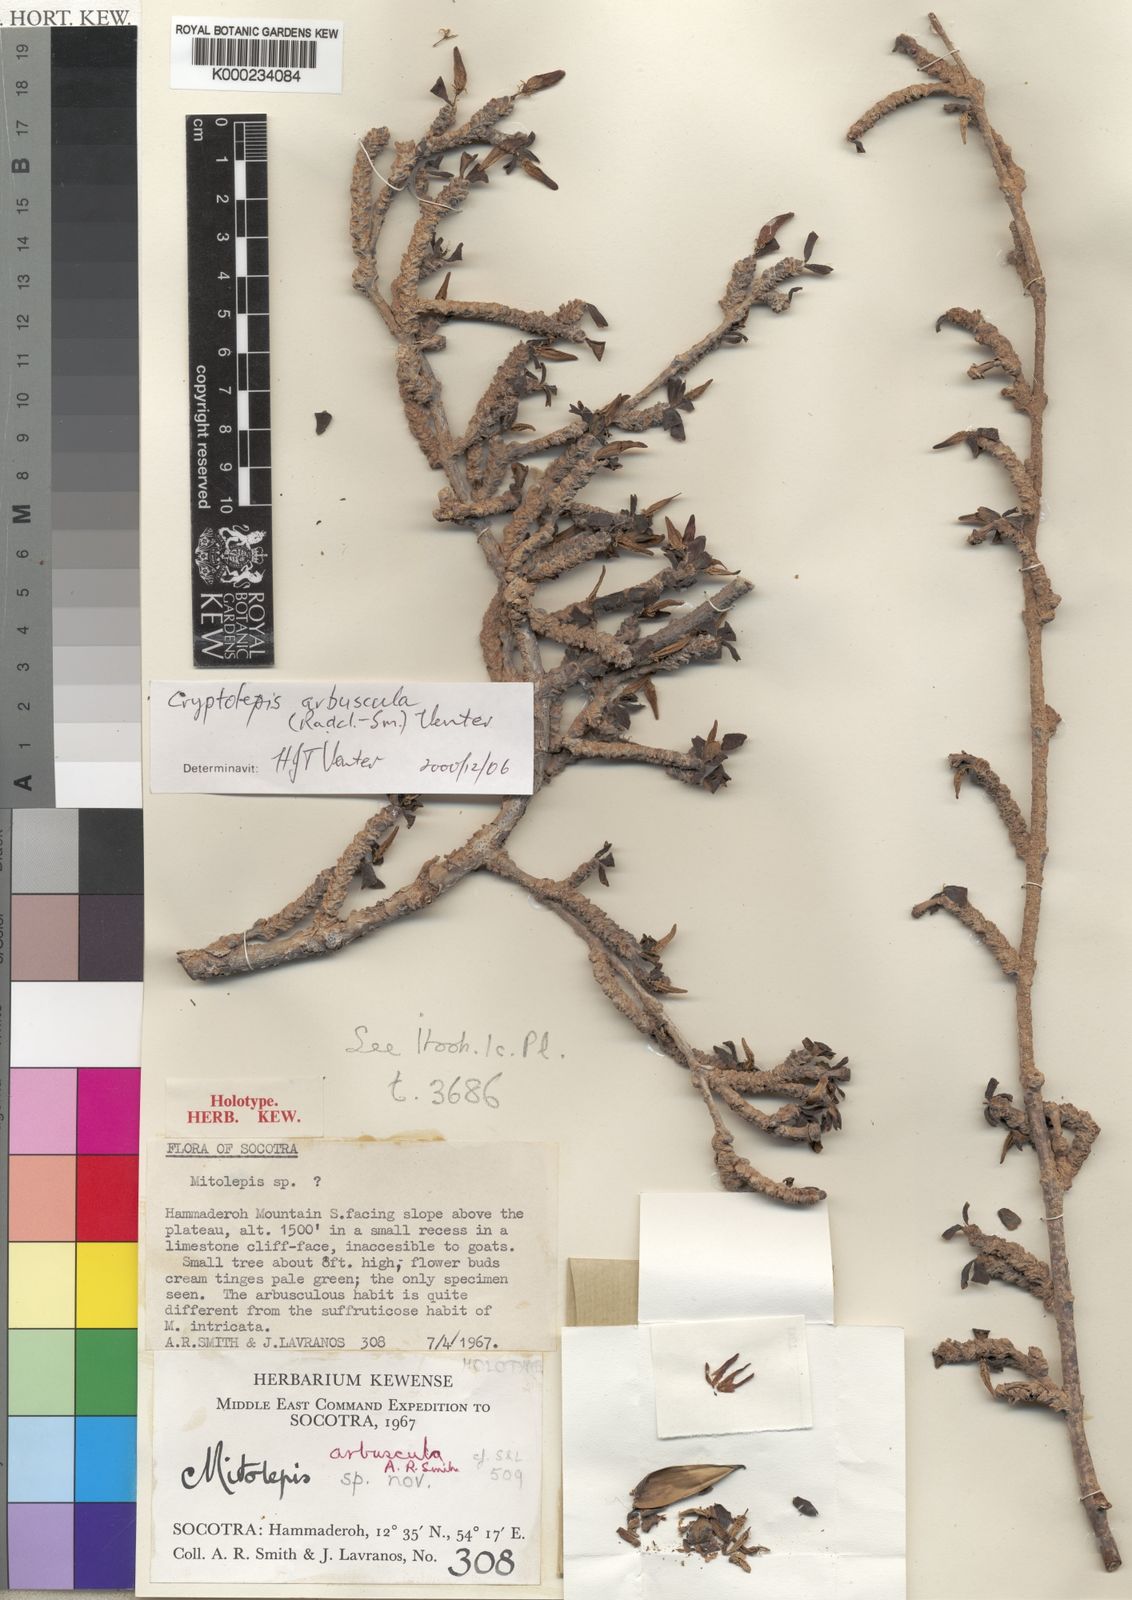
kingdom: Plantae
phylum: Tracheophyta
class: Magnoliopsida
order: Gentianales
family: Apocynaceae
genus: Cryptolepis
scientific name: Cryptolepis arbuscula
